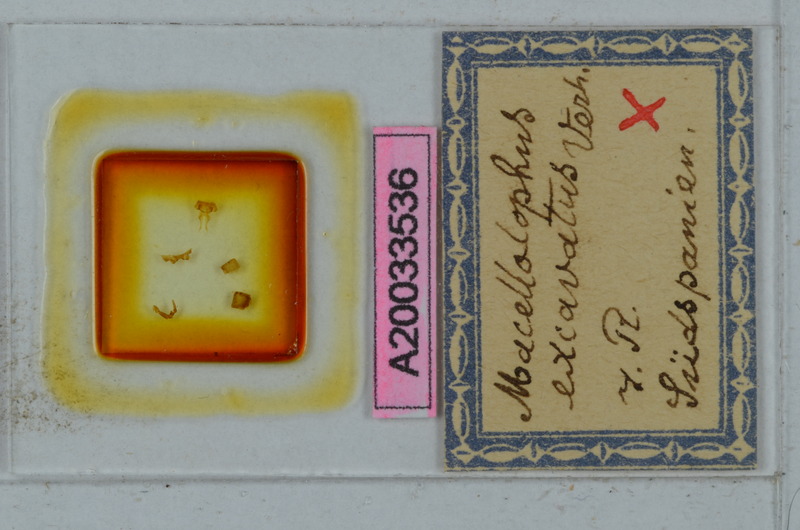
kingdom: Animalia
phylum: Arthropoda
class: Diplopoda
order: Polydesmida
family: Chelodesmidae
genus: Macellolophus
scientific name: Macellolophus rubromarginatus
